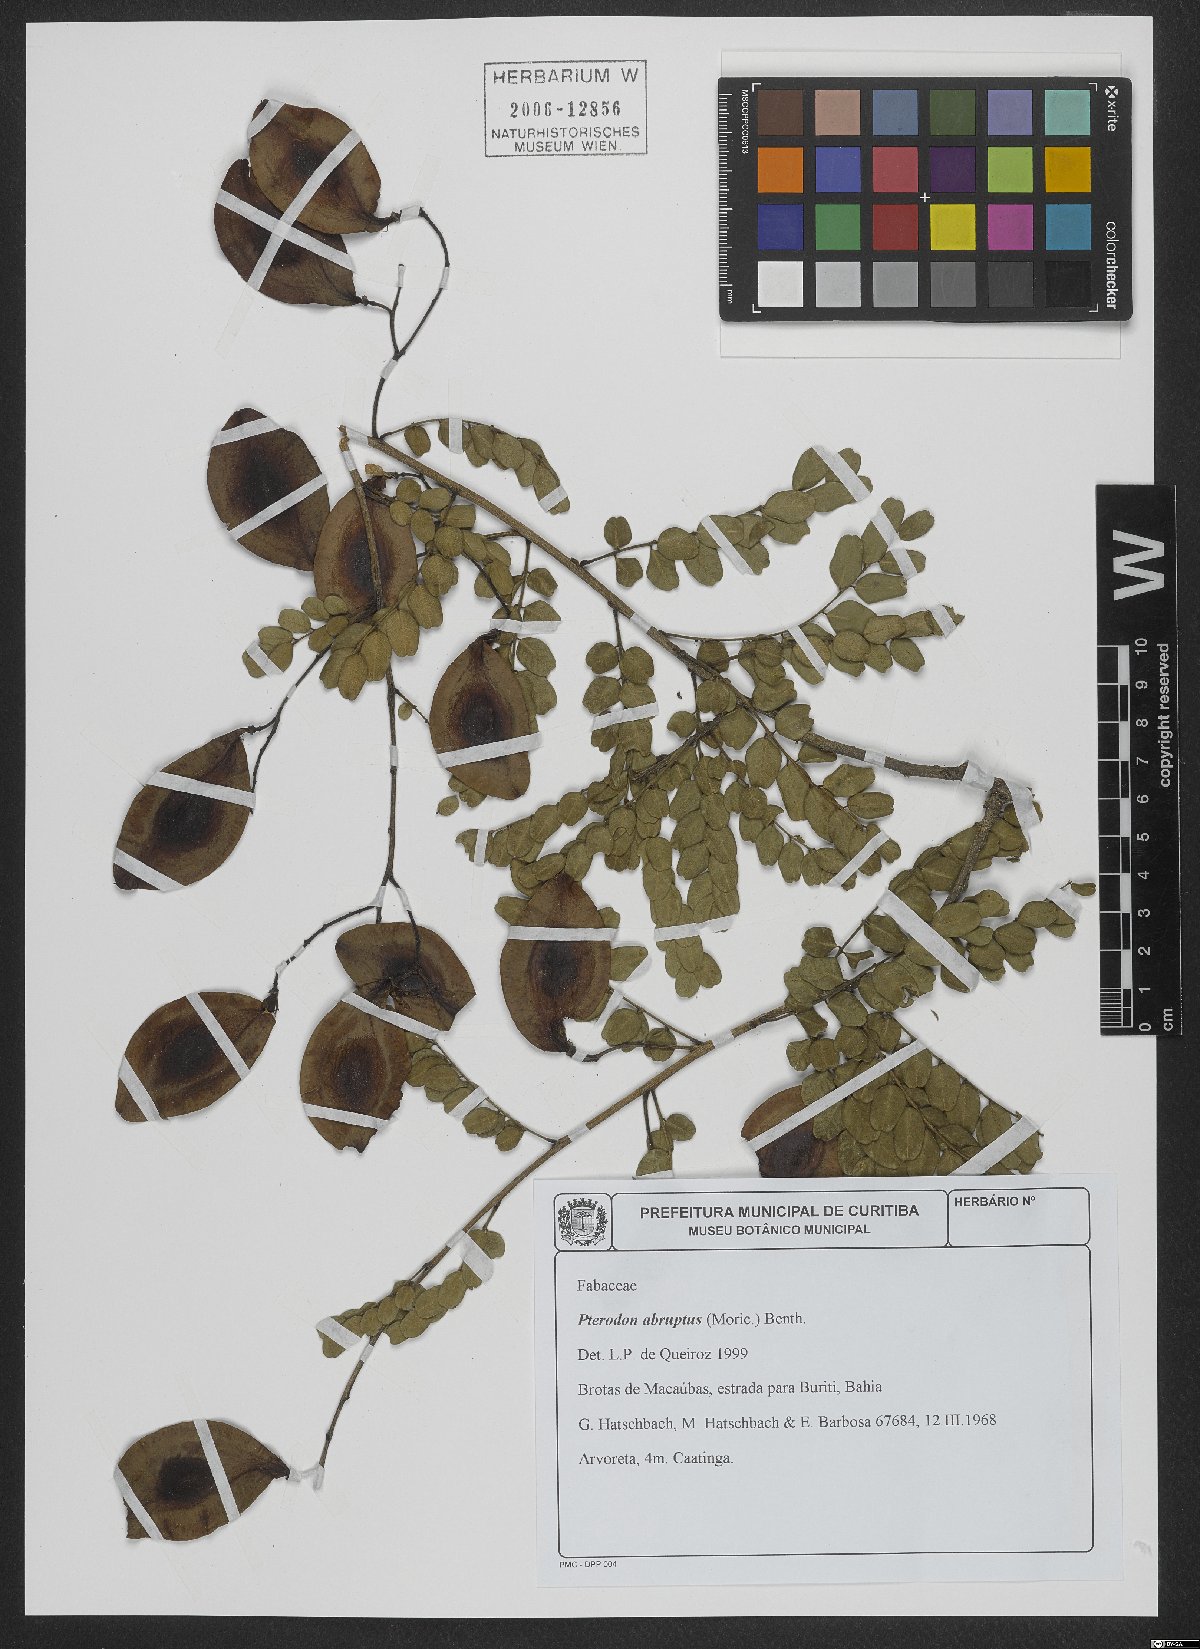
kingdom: Plantae
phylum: Tracheophyta
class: Magnoliopsida
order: Fabales
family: Fabaceae
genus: Pterodon
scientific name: Pterodon abruptus
